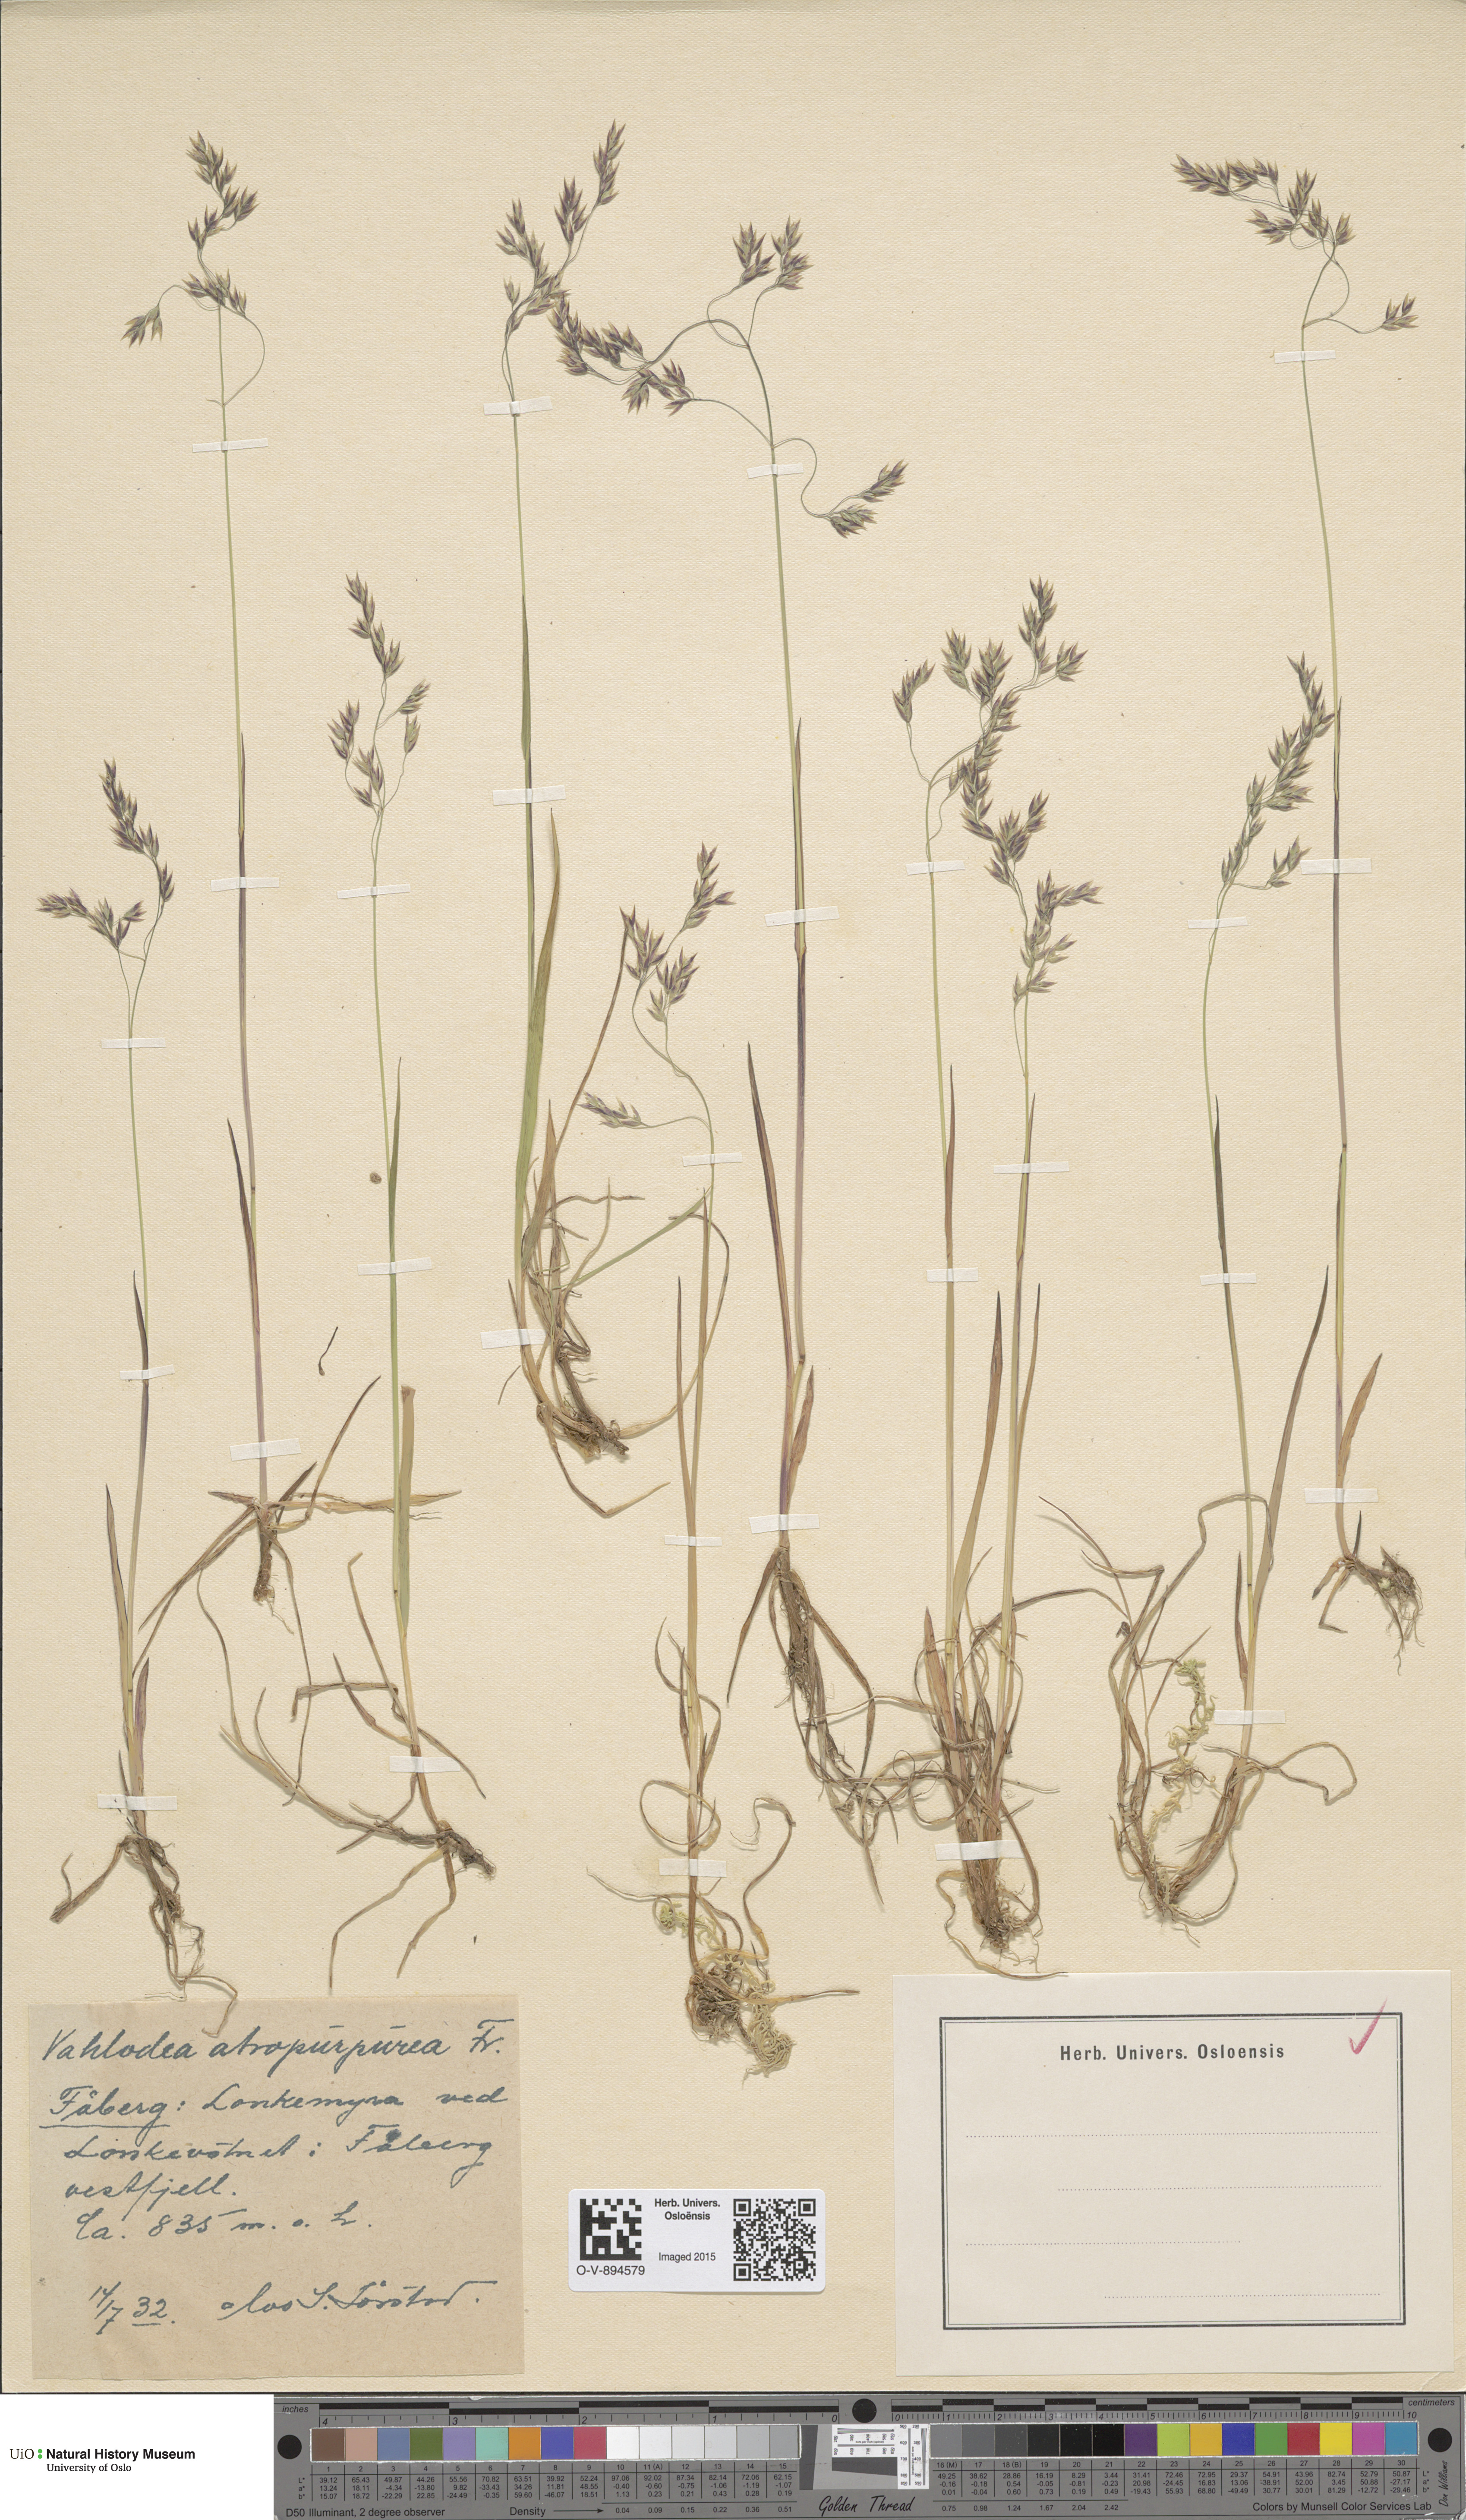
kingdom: Plantae
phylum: Tracheophyta
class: Liliopsida
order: Poales
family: Poaceae
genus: Vahlodea
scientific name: Vahlodea atropurpurea
